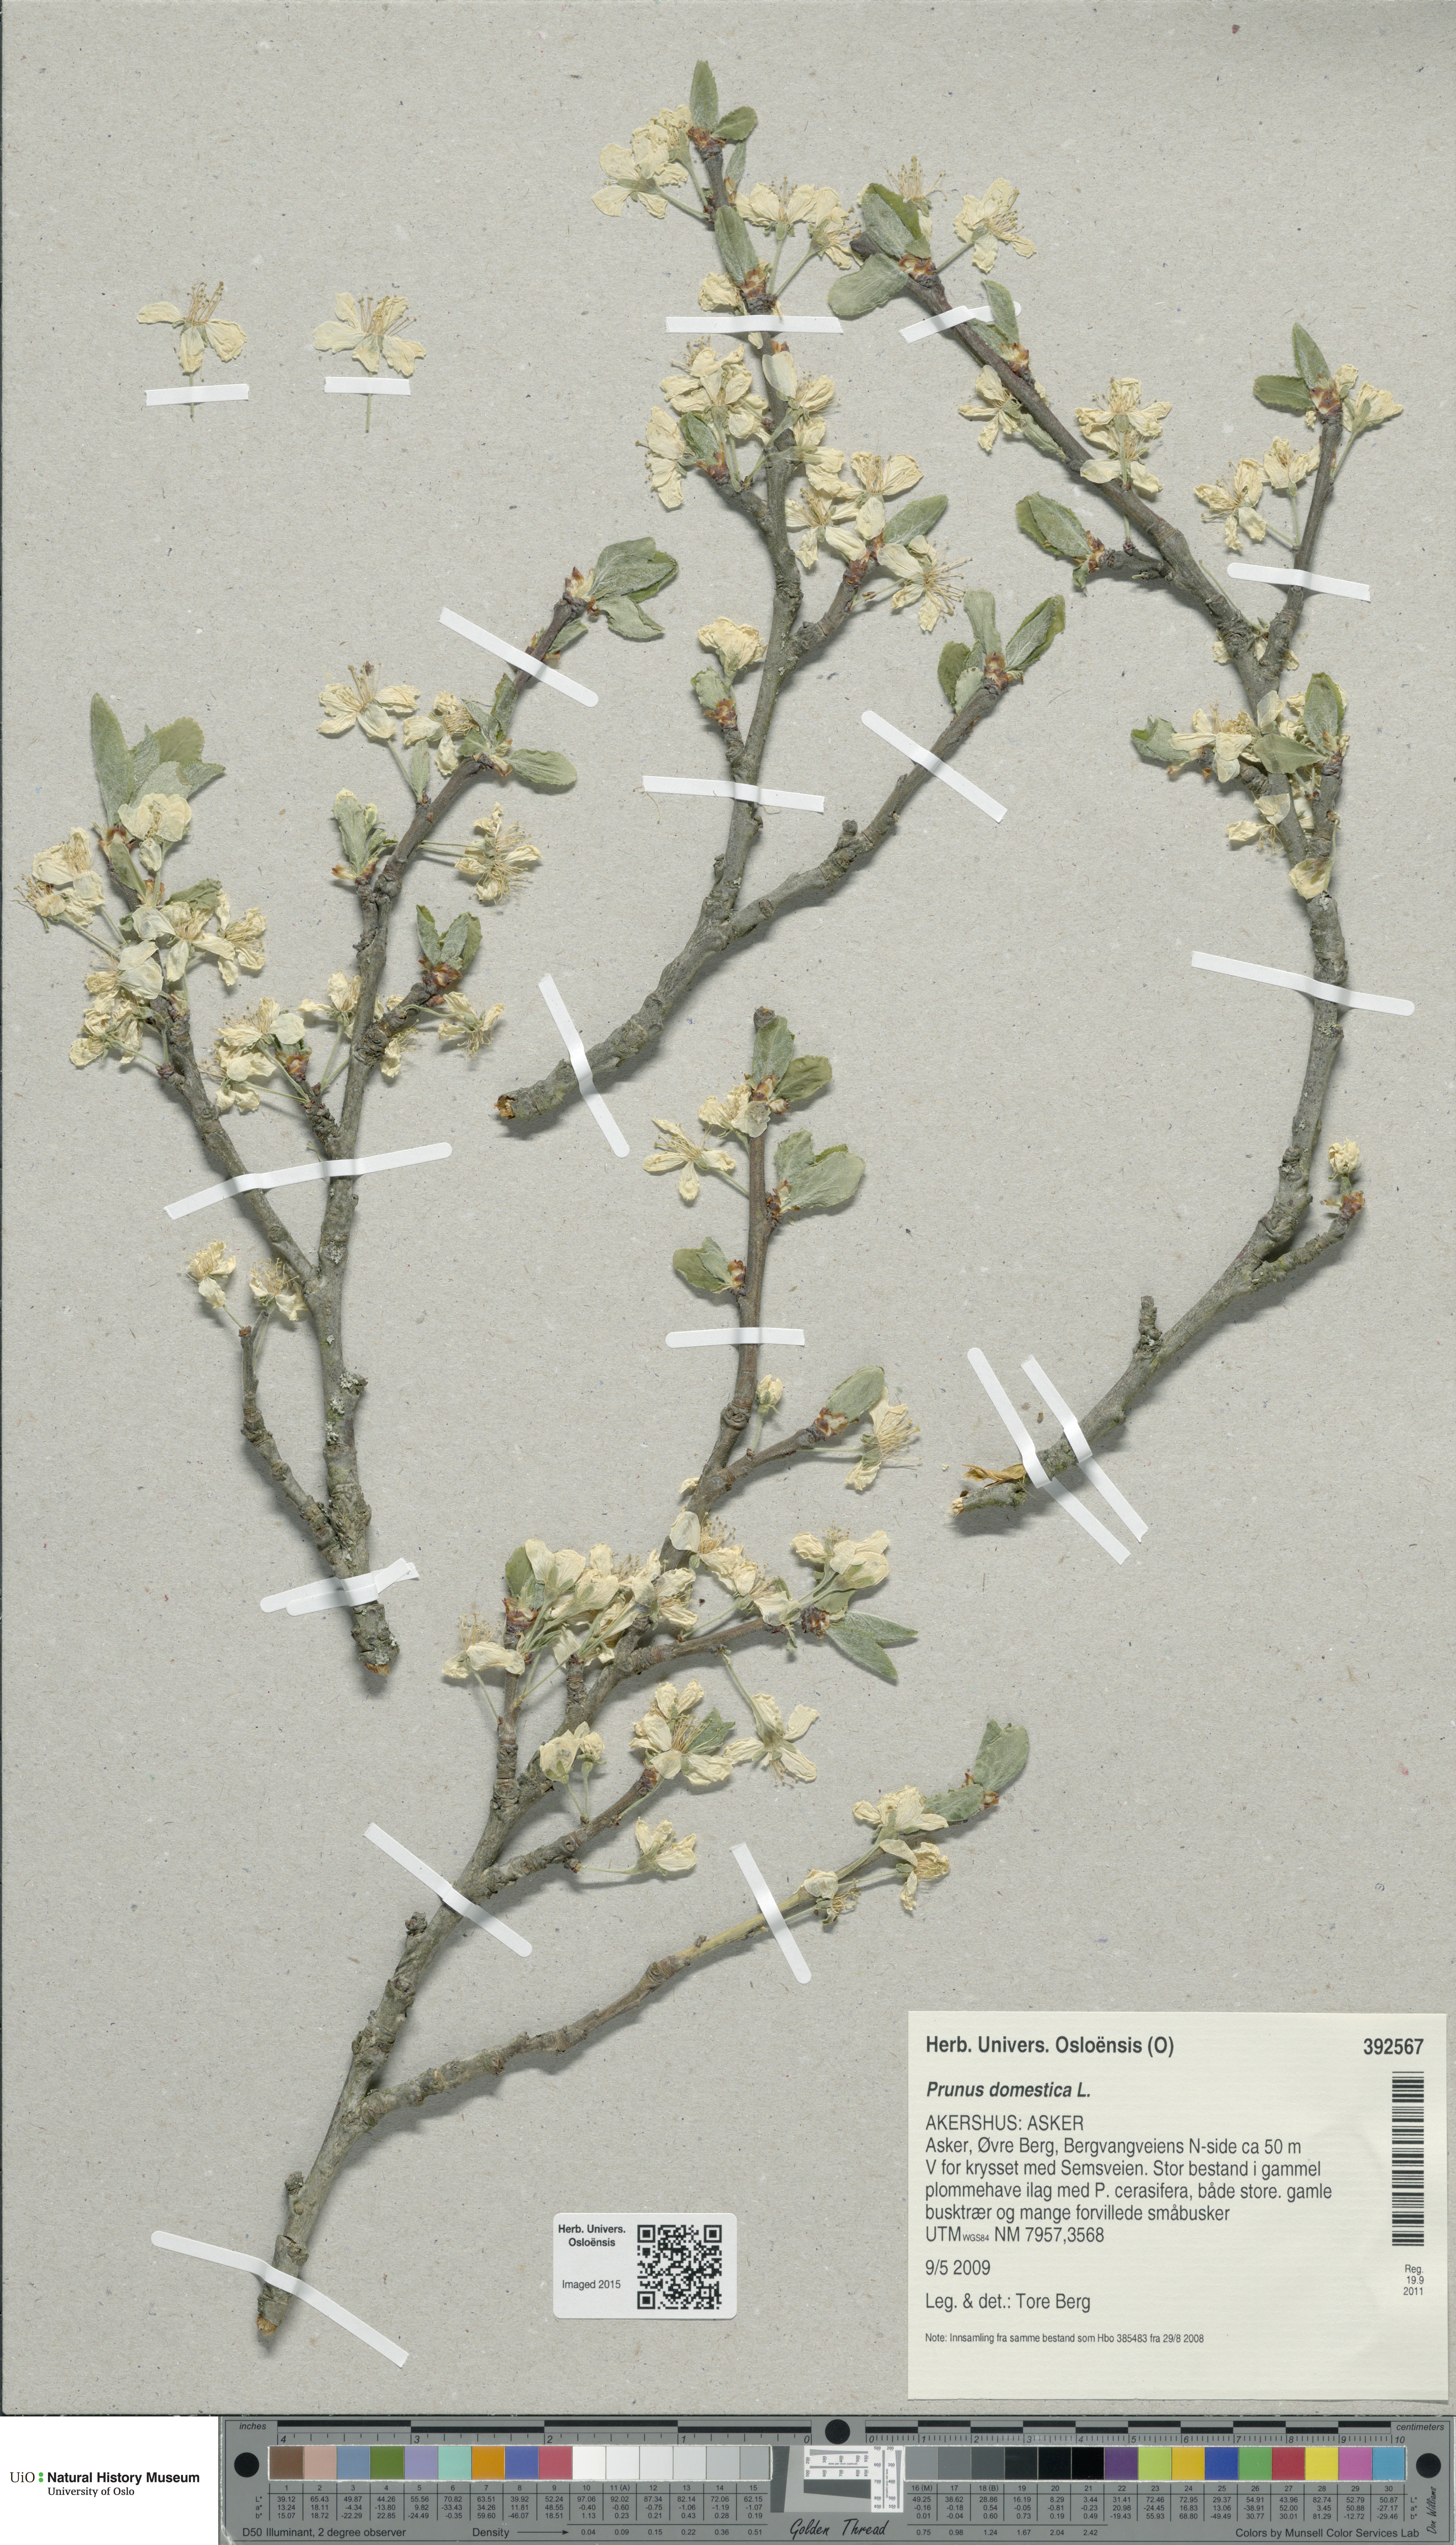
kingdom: Plantae
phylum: Tracheophyta
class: Magnoliopsida
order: Rosales
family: Rosaceae
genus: Prunus
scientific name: Prunus domestica
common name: Wild plum
